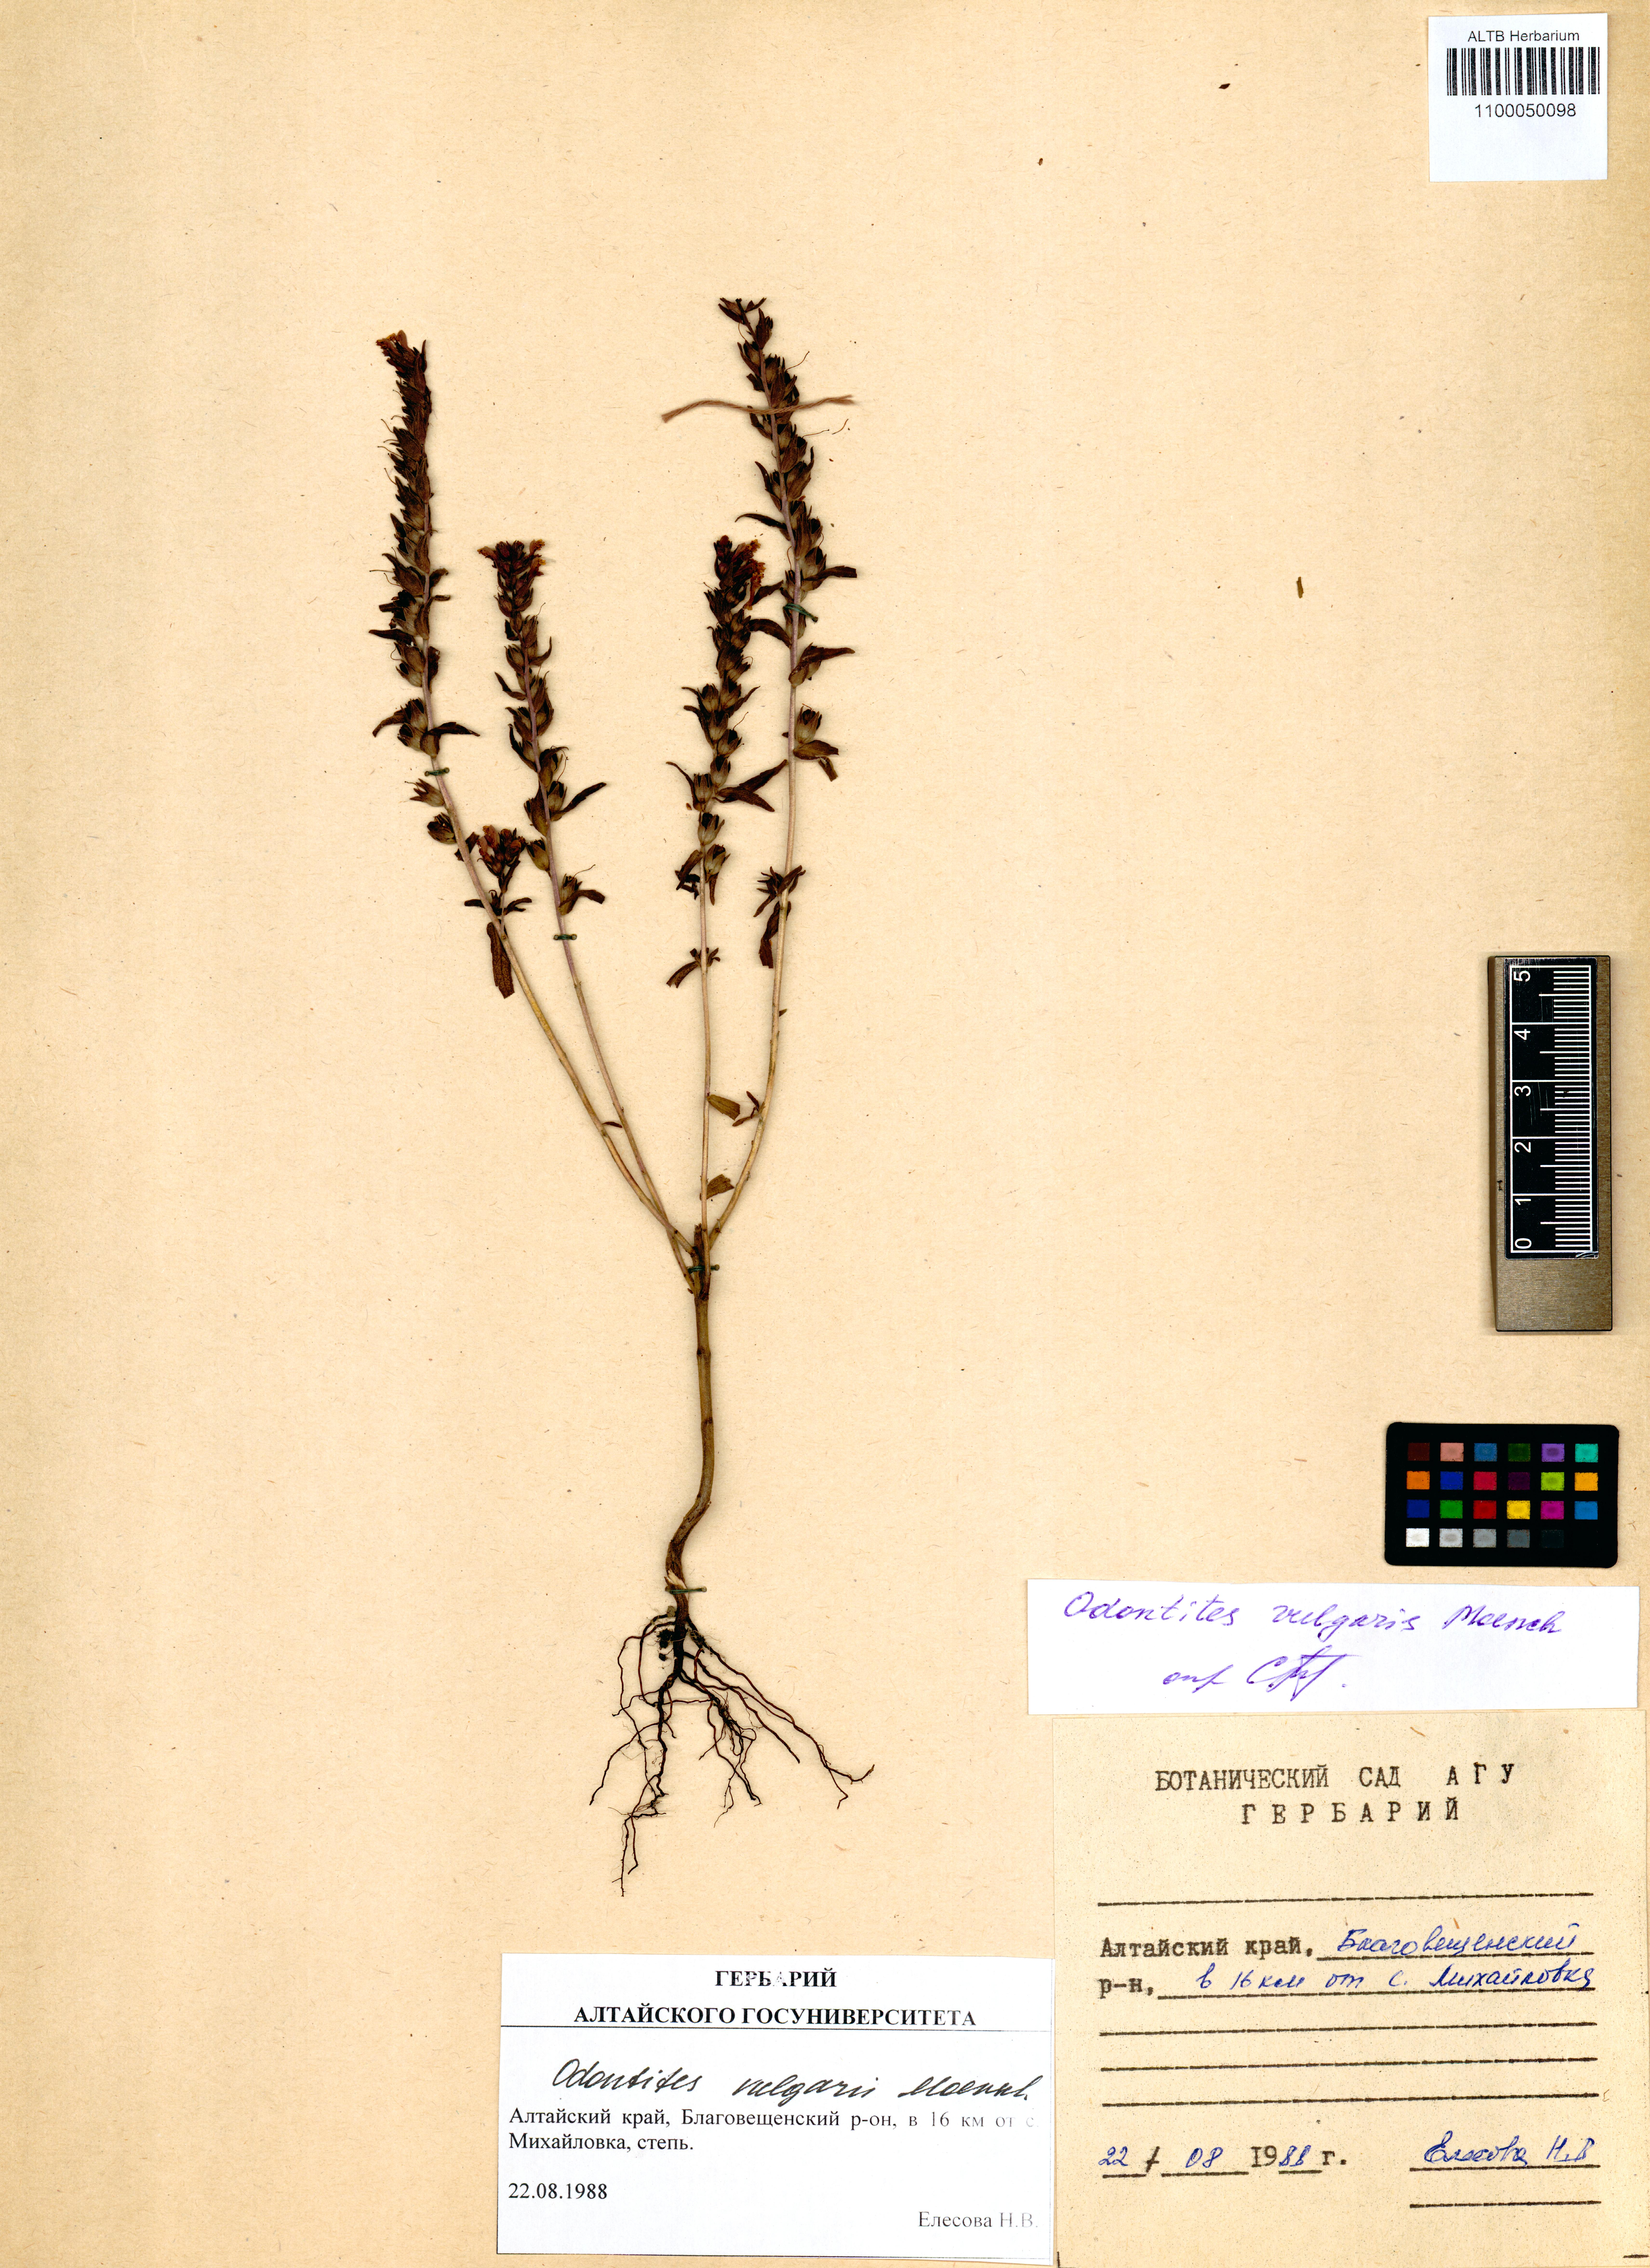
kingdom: Plantae
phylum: Tracheophyta
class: Magnoliopsida
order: Lamiales
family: Orobanchaceae
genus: Odontites
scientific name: Odontites vulgaris
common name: Broomrape
